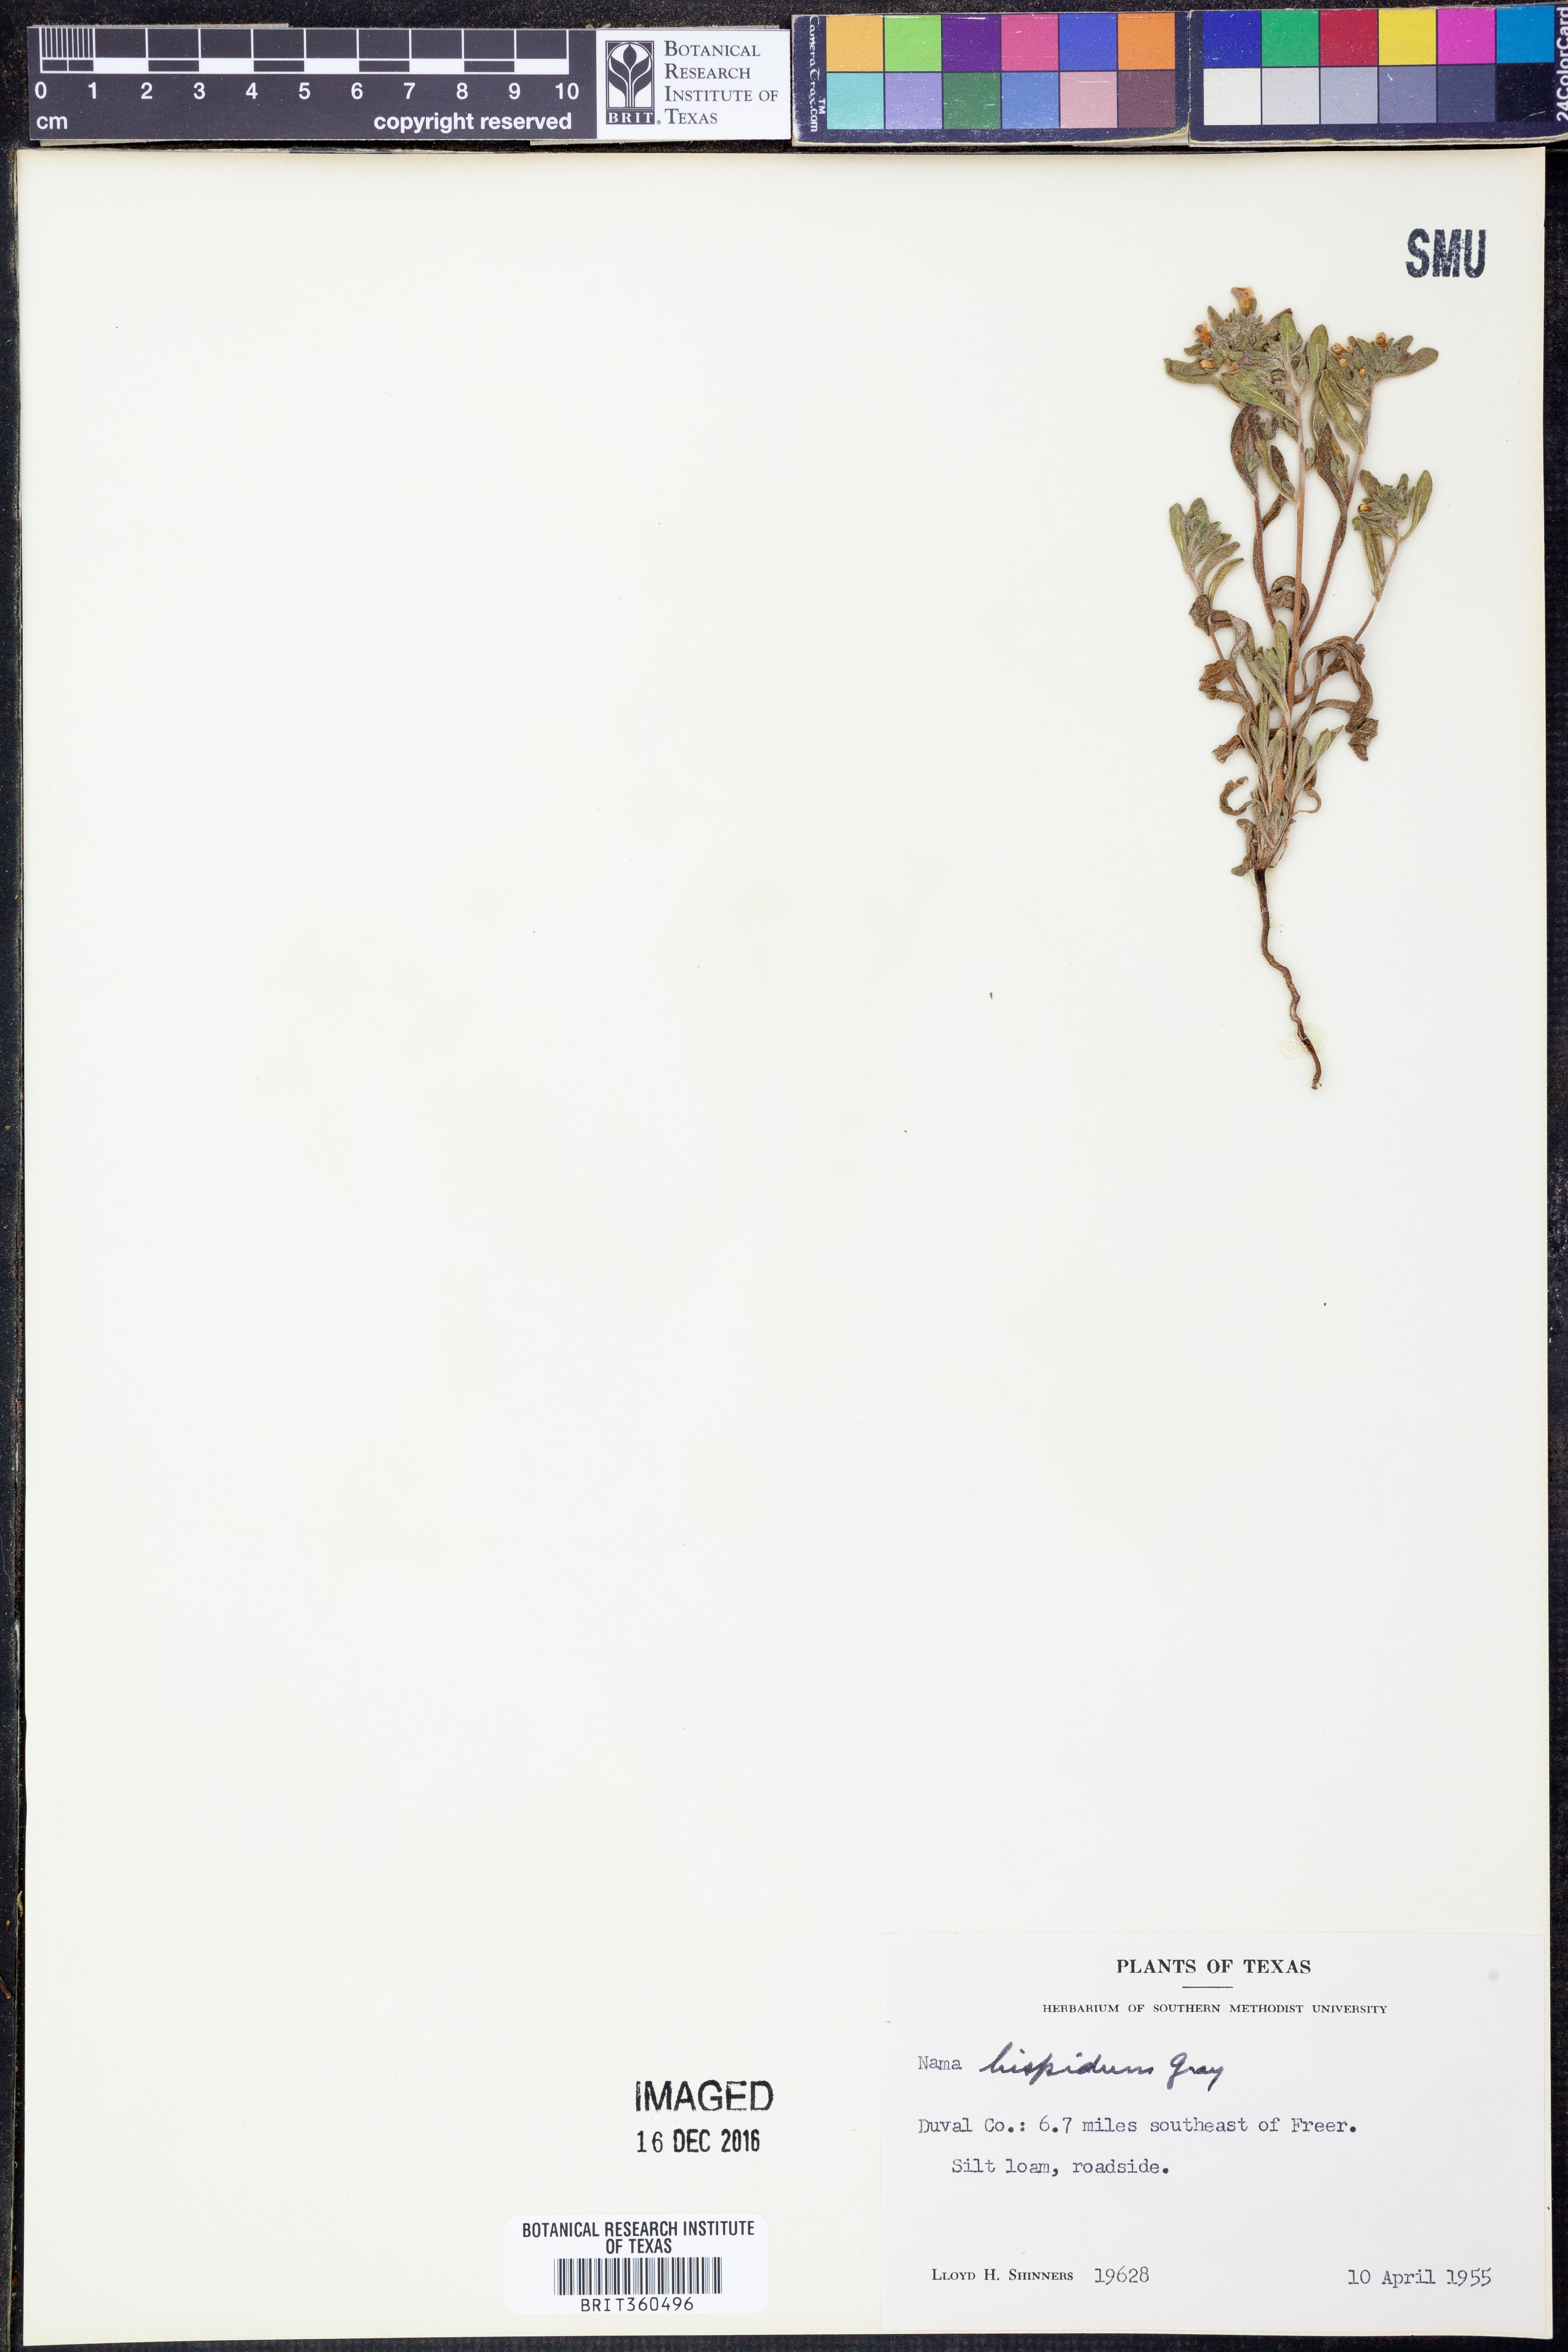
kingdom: Plantae
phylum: Tracheophyta
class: Magnoliopsida
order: Boraginales
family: Namaceae
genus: Nama
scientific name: Nama hispida
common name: Bristly nama
